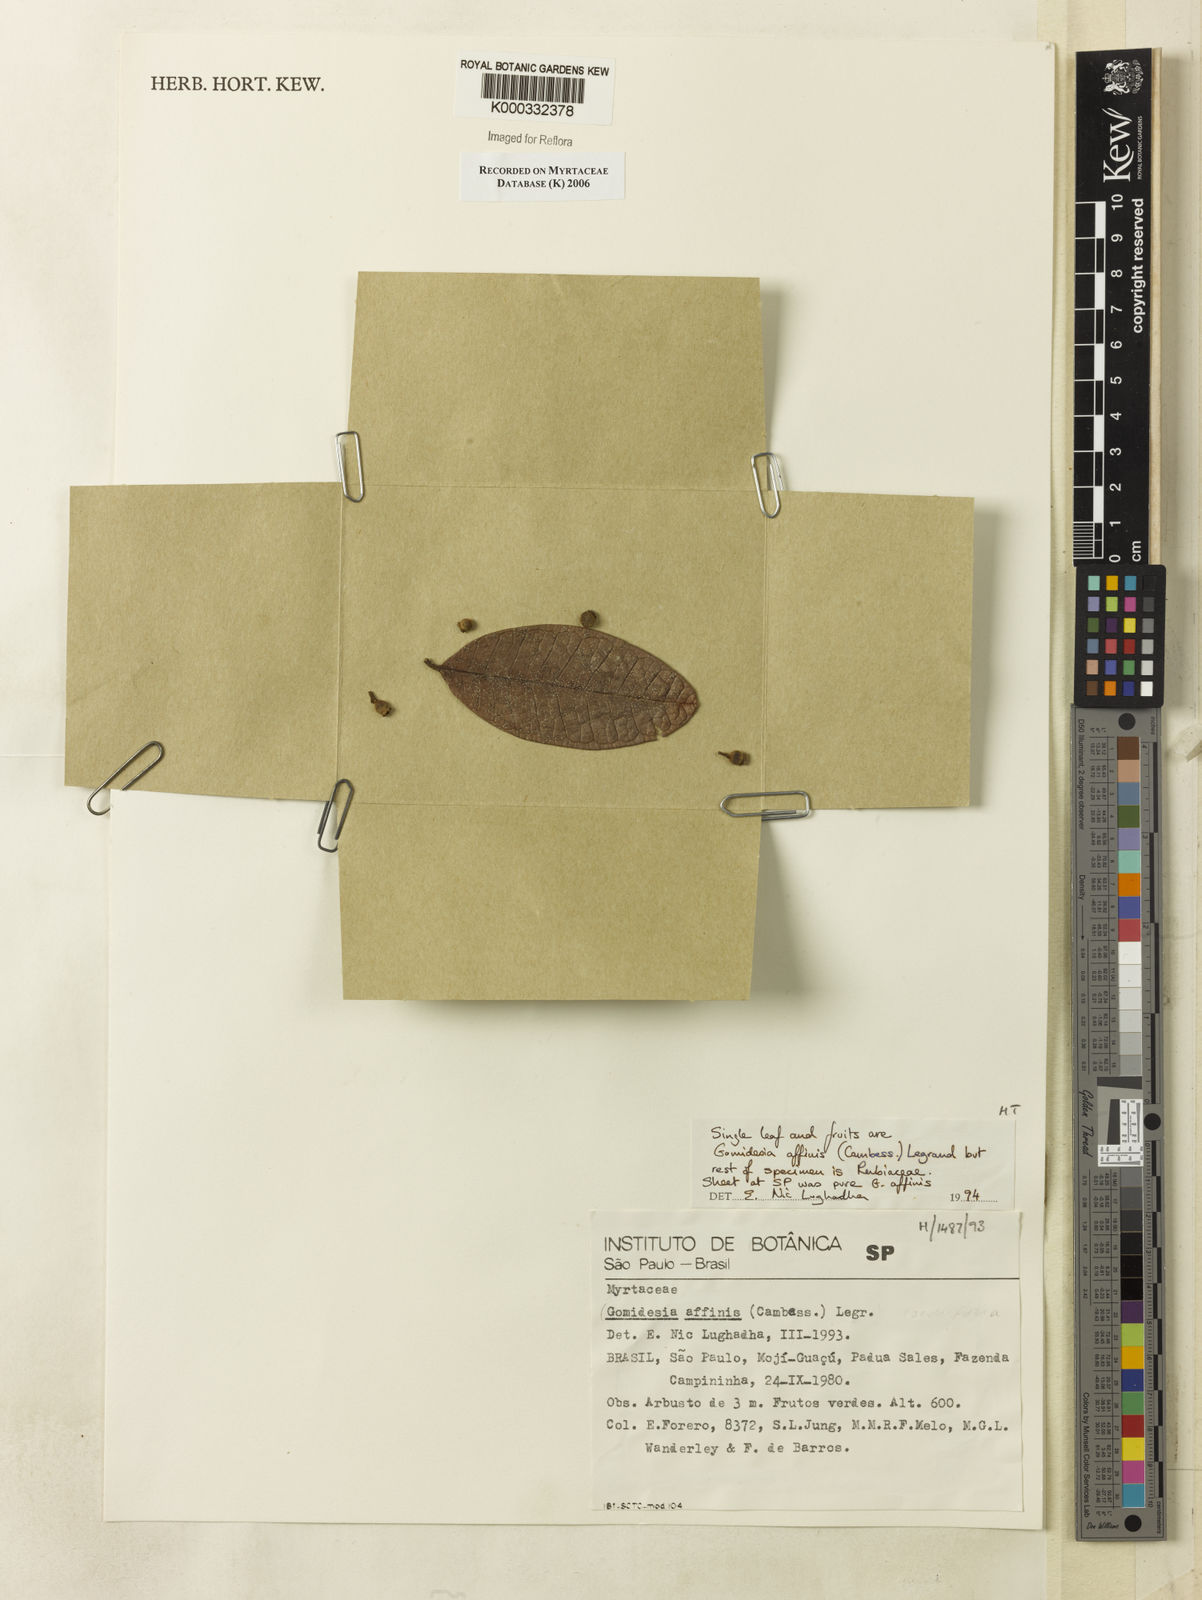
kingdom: Plantae
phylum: Tracheophyta
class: Magnoliopsida
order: Myrtales
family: Myrtaceae
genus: Myrcia
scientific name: Myrcia hebepetala
